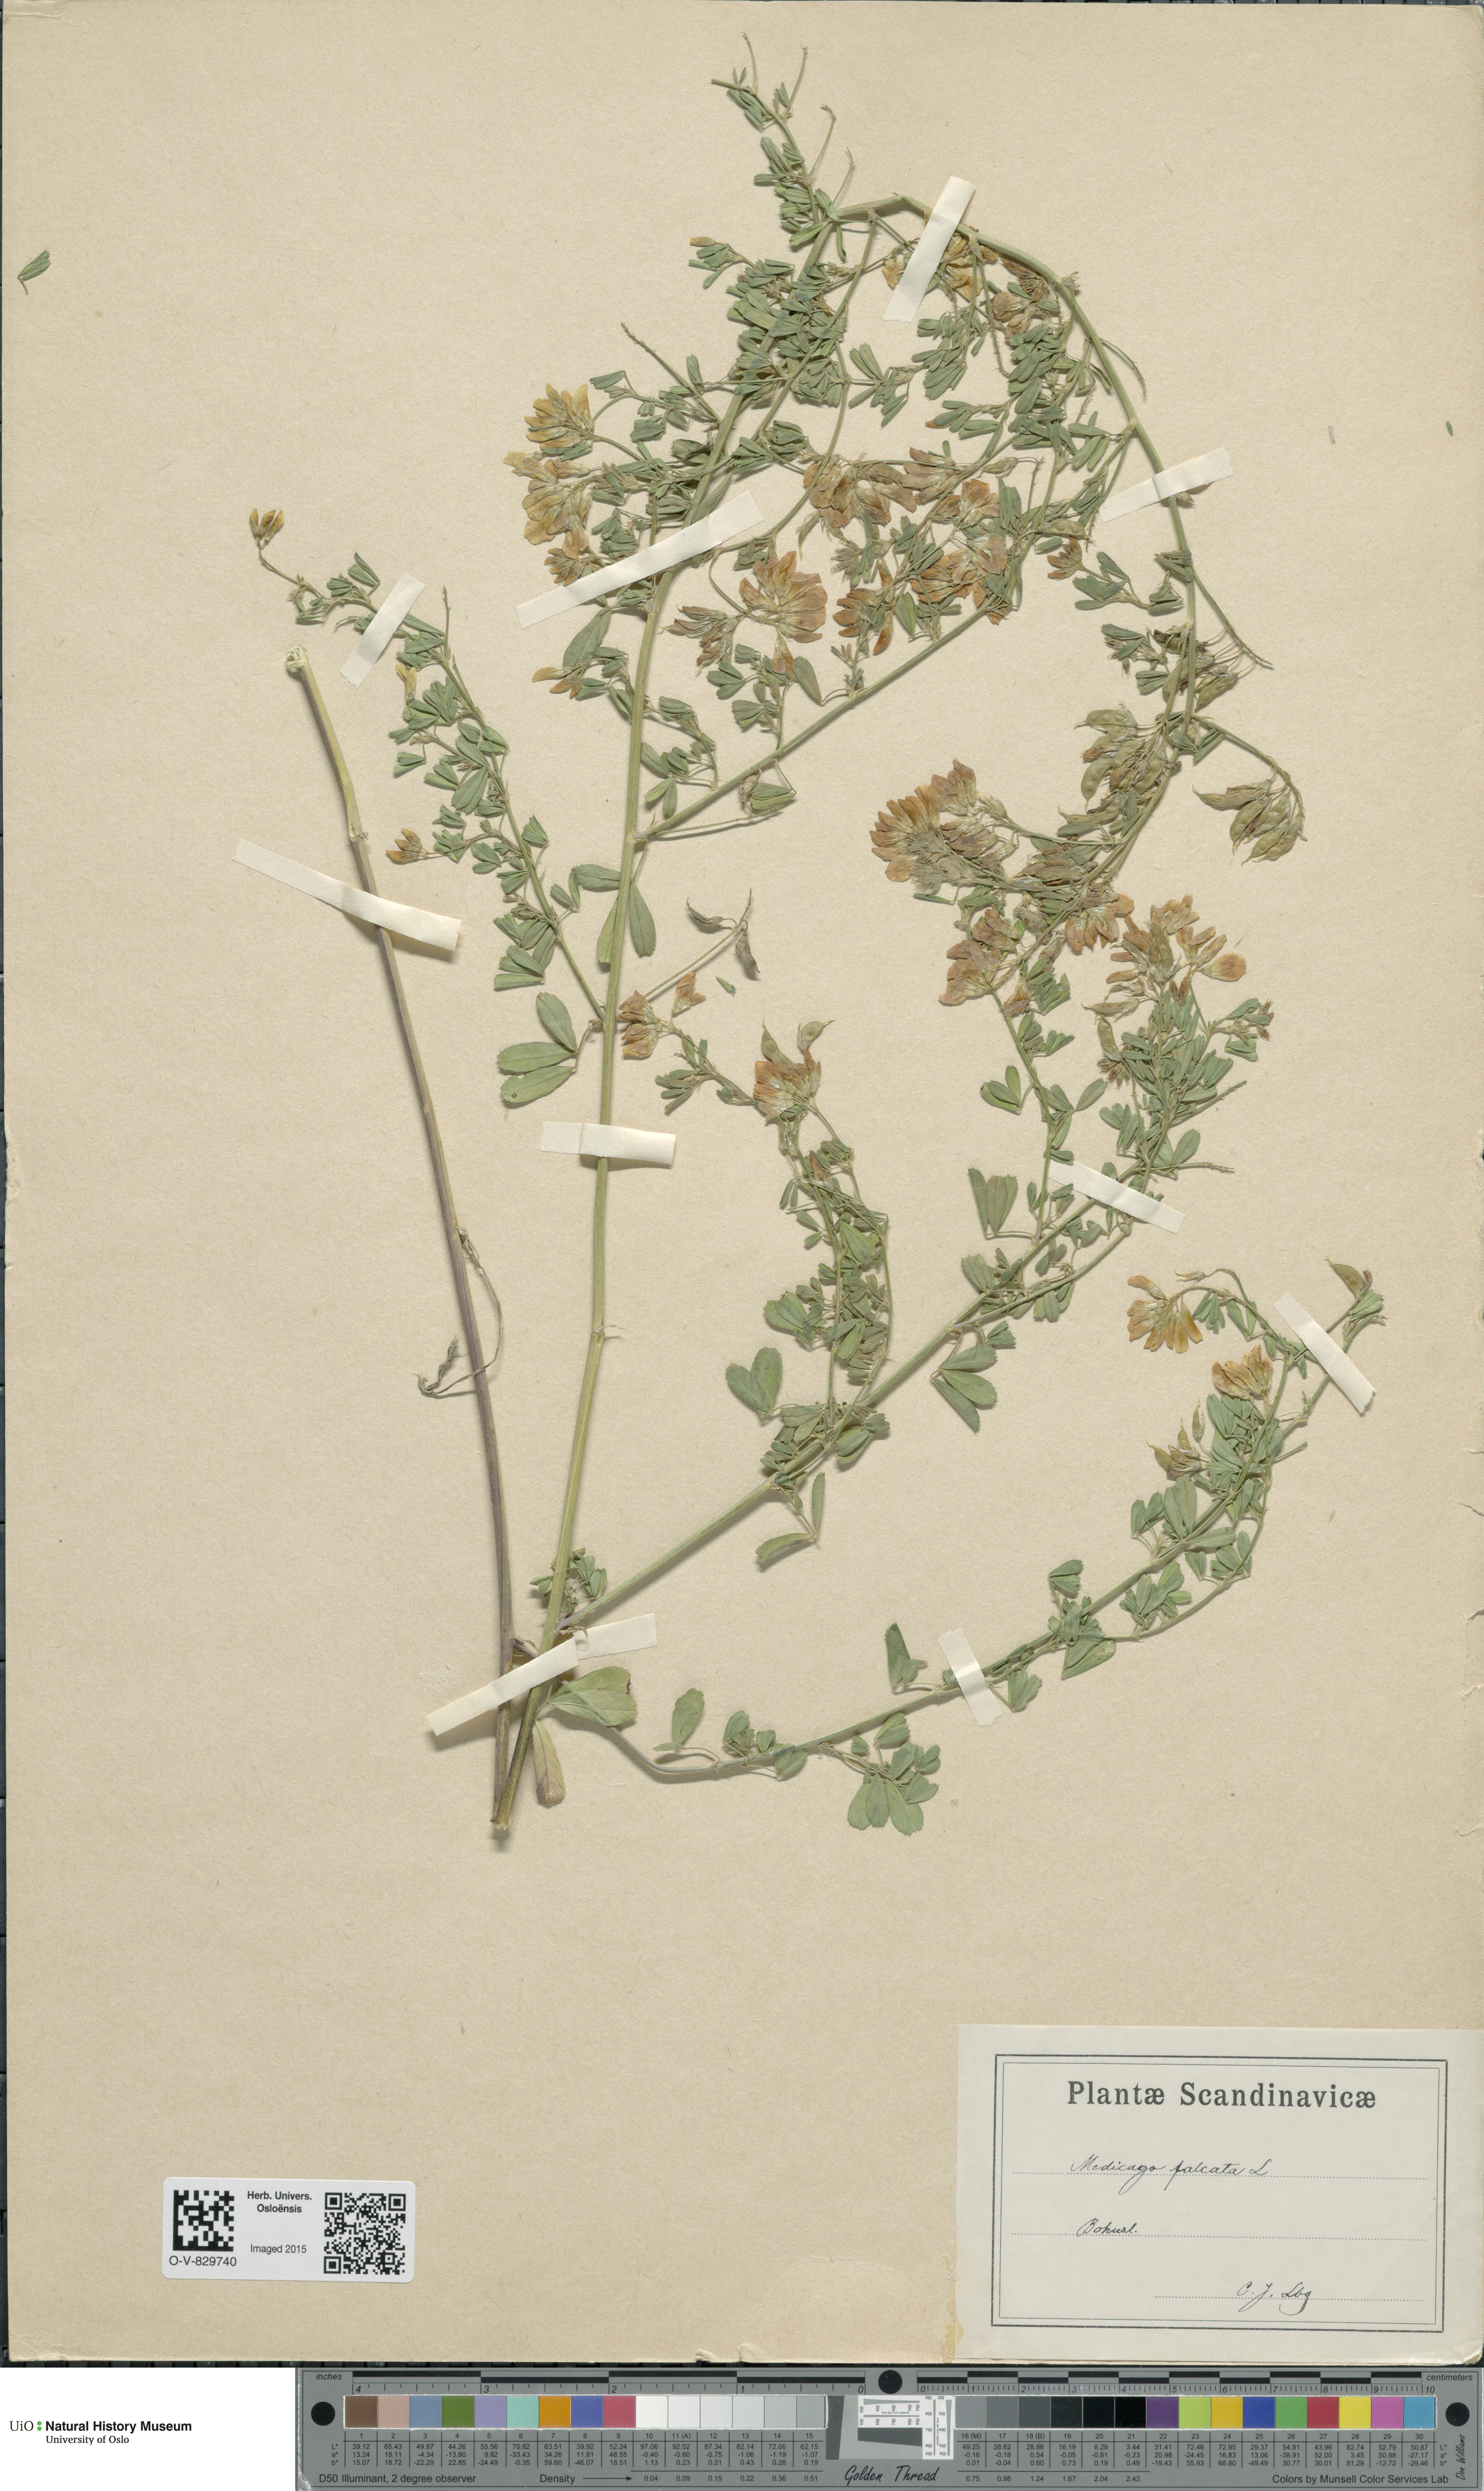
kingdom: Plantae
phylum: Tracheophyta
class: Magnoliopsida
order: Fabales
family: Fabaceae
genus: Medicago
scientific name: Medicago falcata
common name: Sickle medick
